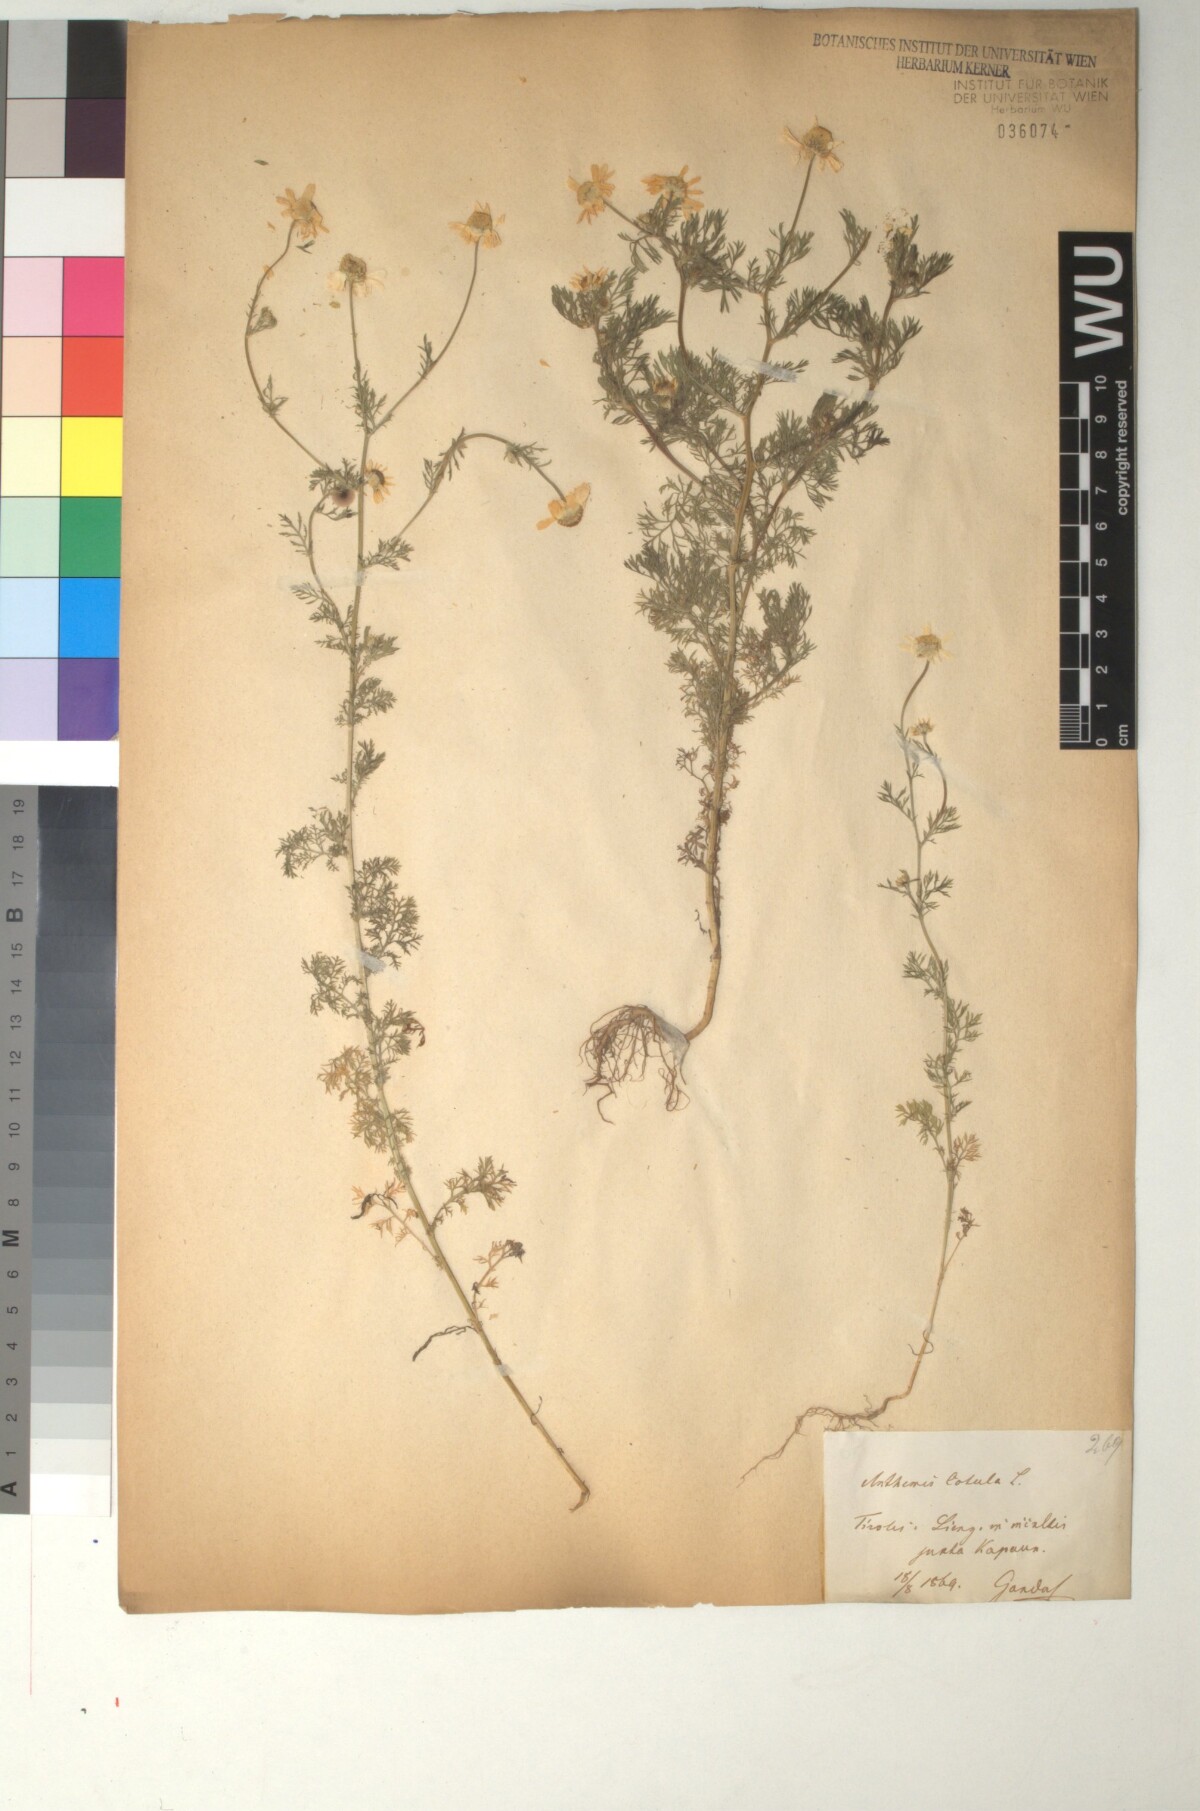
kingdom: Plantae
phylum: Tracheophyta
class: Magnoliopsida
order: Asterales
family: Asteraceae
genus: Anthemis
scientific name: Anthemis cotula
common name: Stinking chamomile
